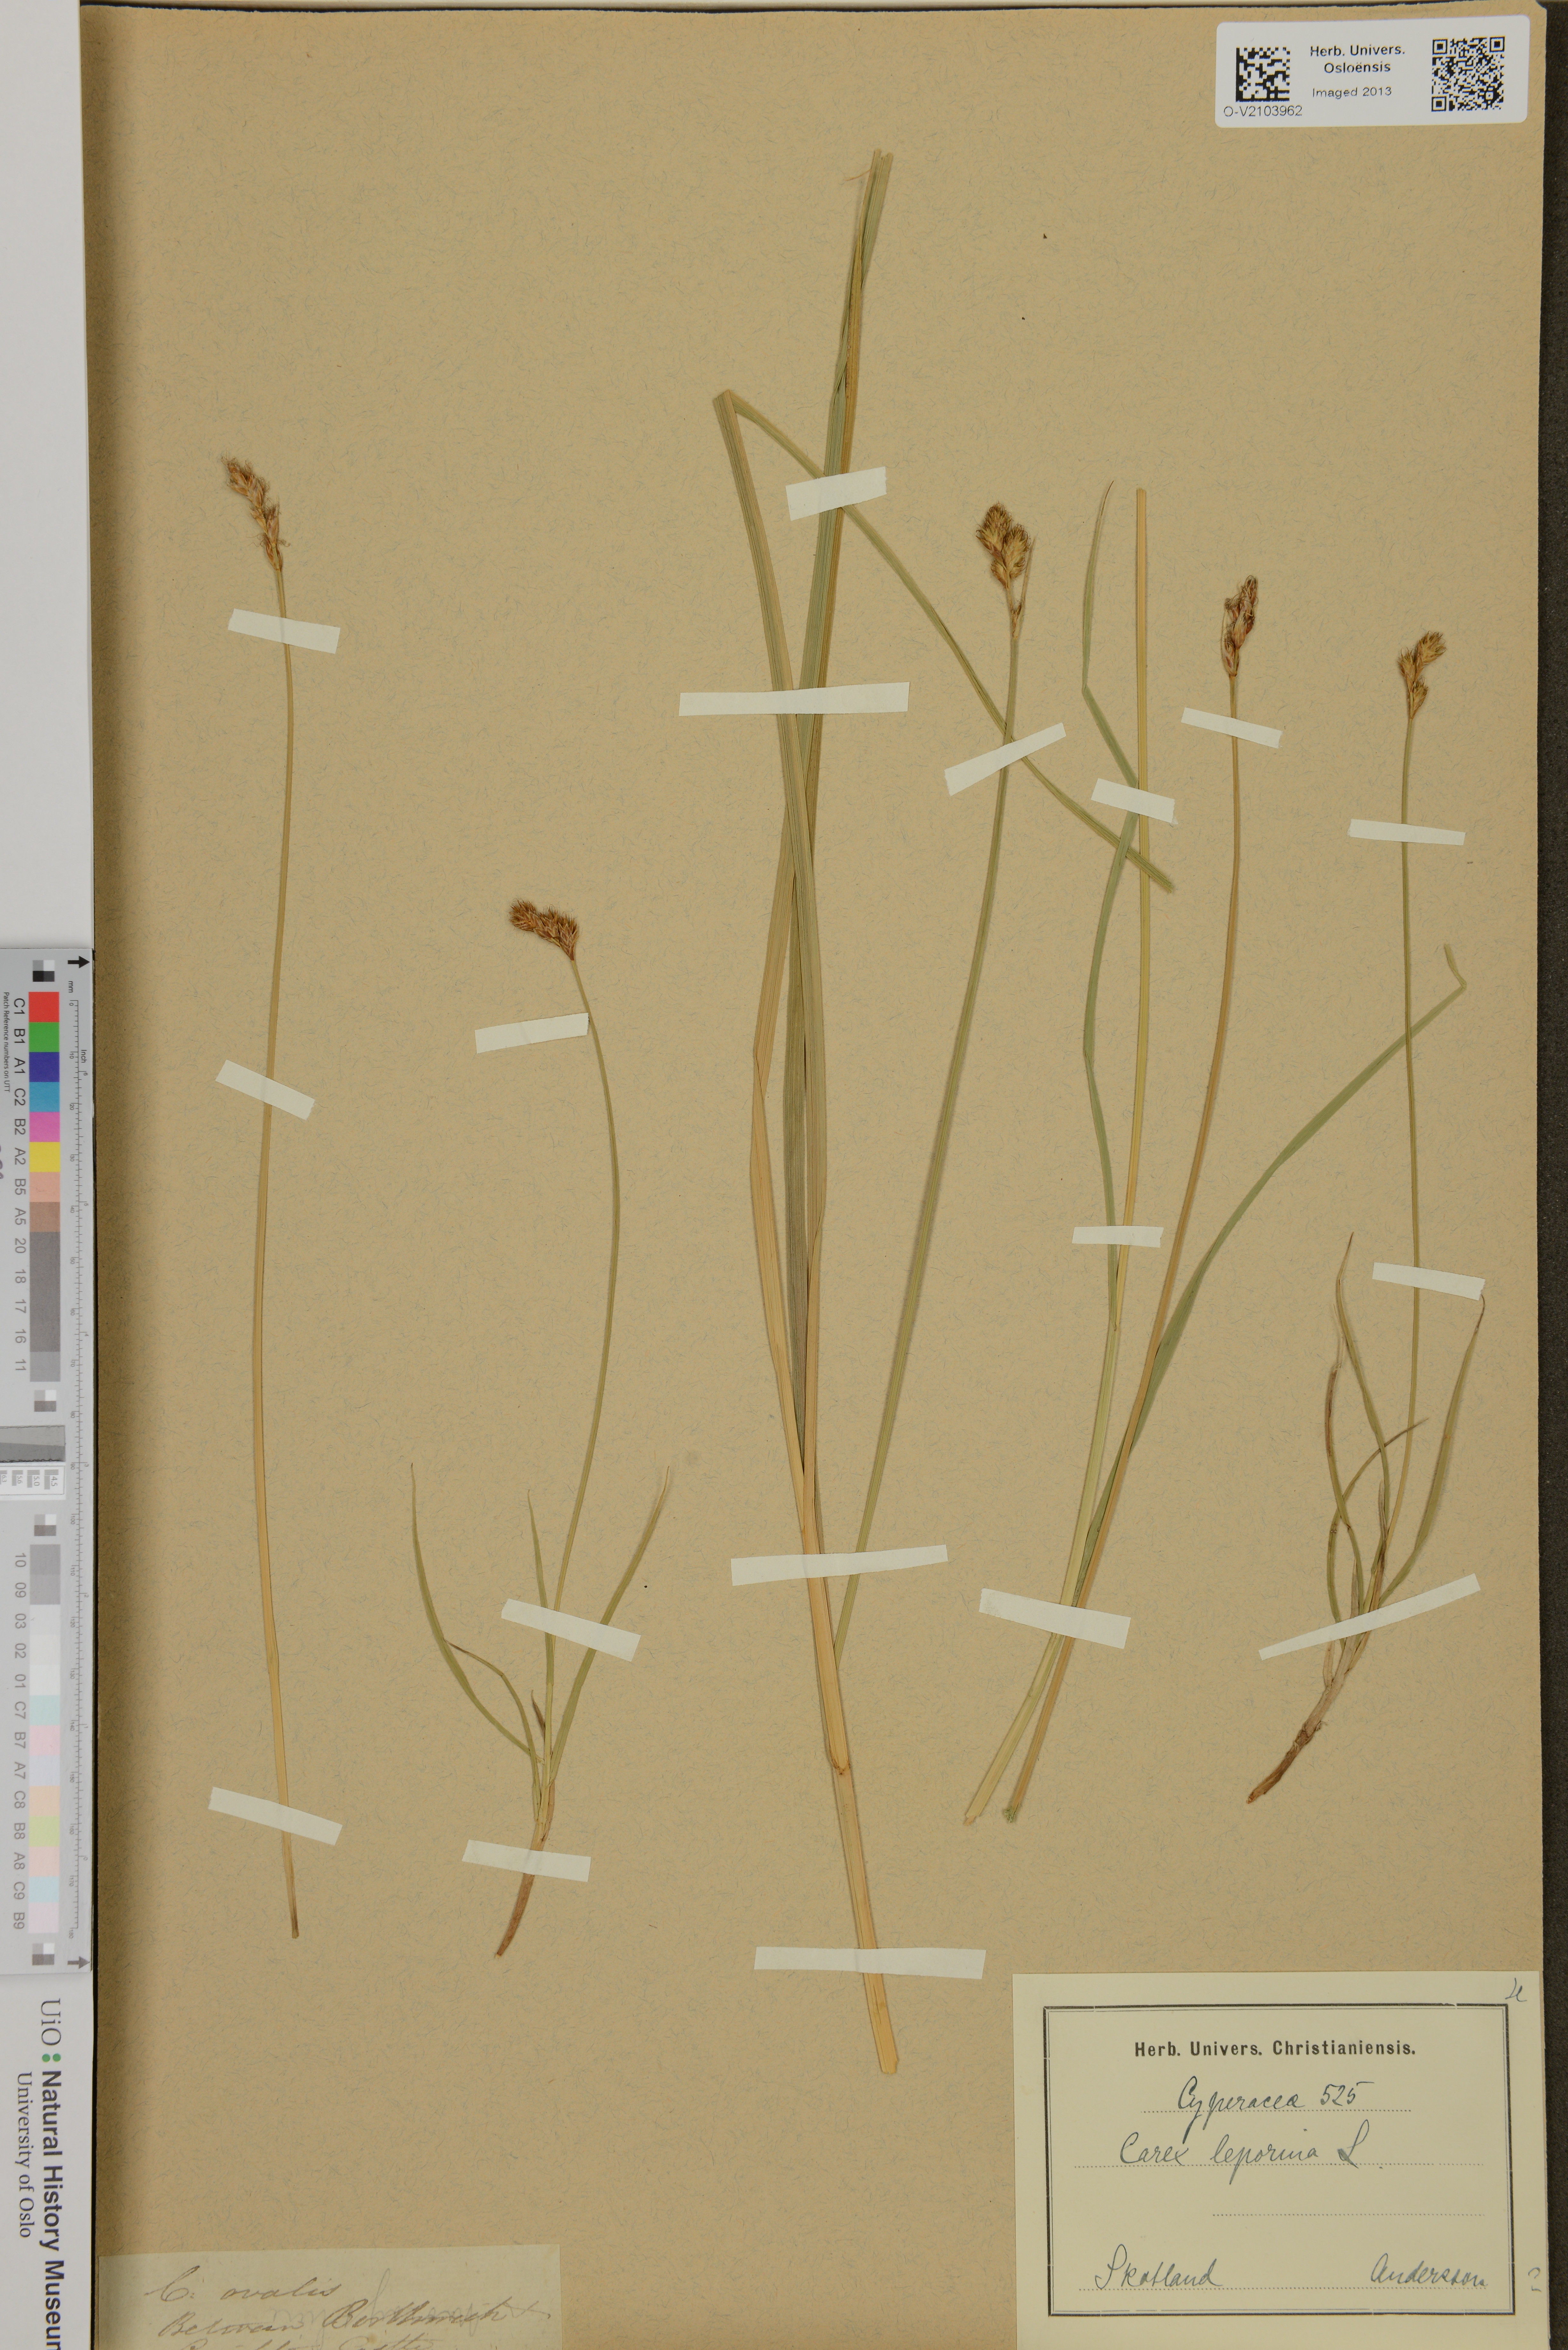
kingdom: Plantae
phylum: Tracheophyta
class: Liliopsida
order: Poales
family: Cyperaceae
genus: Carex
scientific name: Carex leporina
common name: Oval sedge
